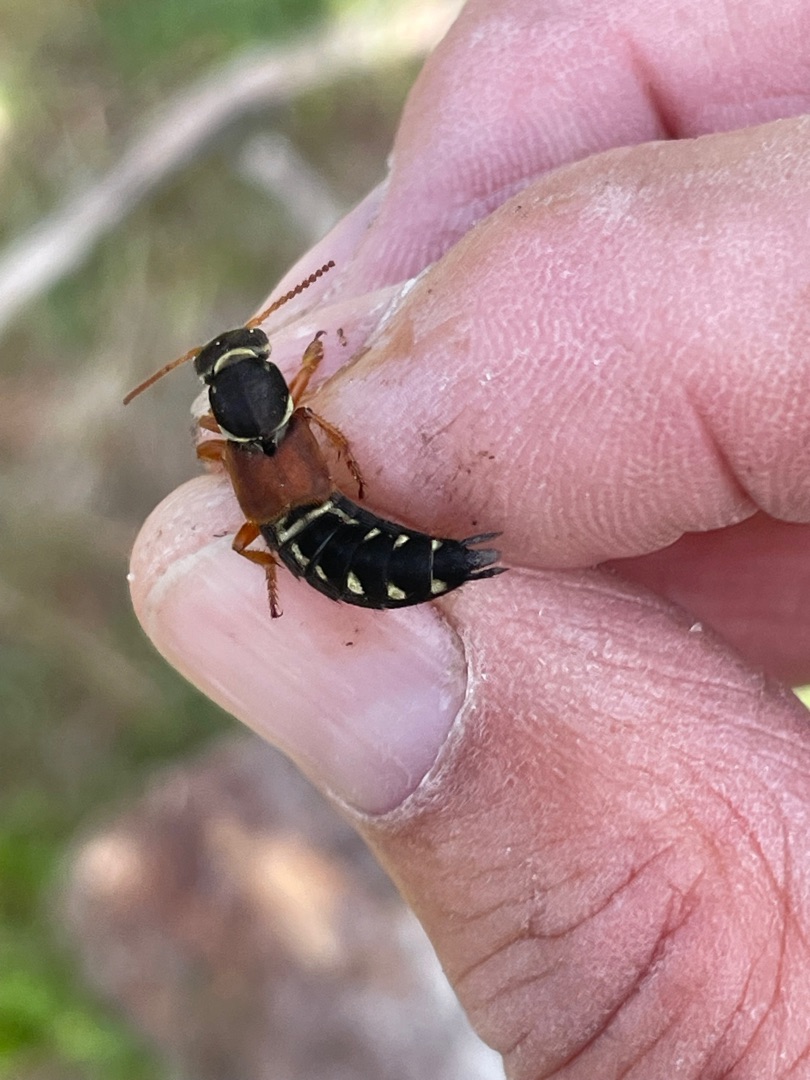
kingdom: Animalia
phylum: Arthropoda
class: Insecta
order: Coleoptera
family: Staphylinidae
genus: Staphylinus
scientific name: Staphylinus caesareus
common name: Kejserrovbille
